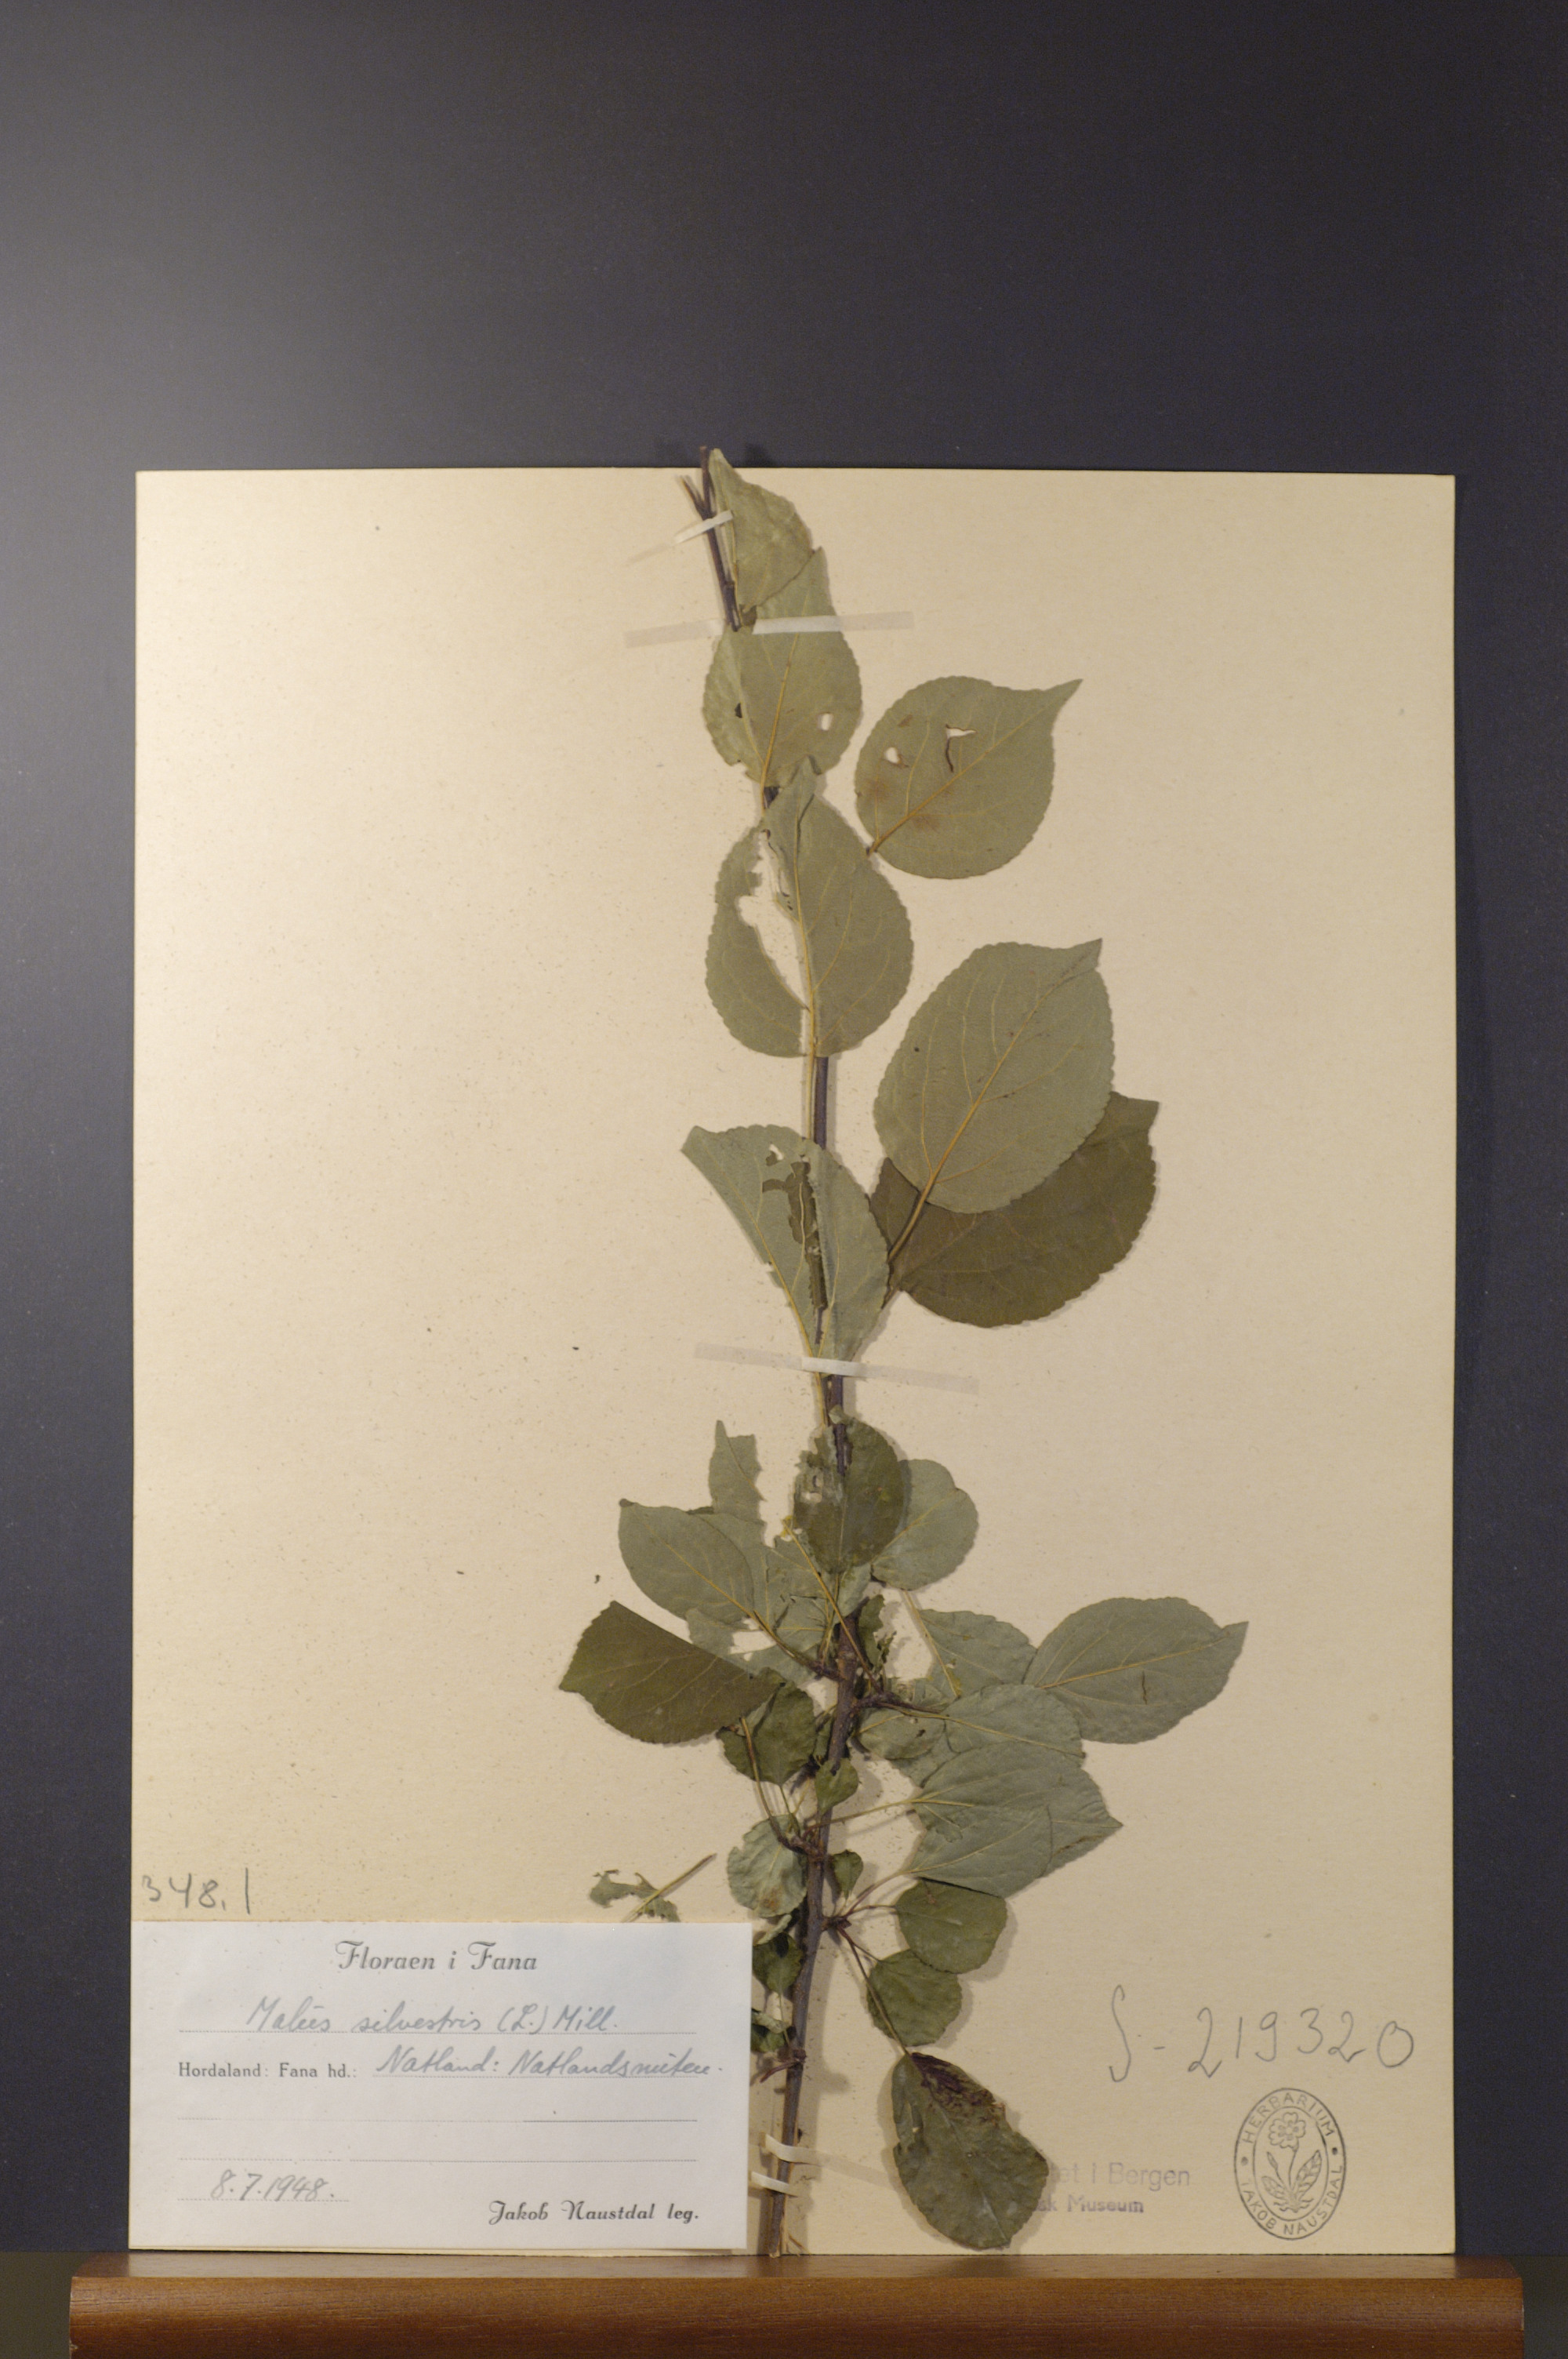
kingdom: Plantae
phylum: Tracheophyta
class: Magnoliopsida
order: Rosales
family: Rosaceae
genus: Malus
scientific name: Malus sylvestris
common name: Crab apple
